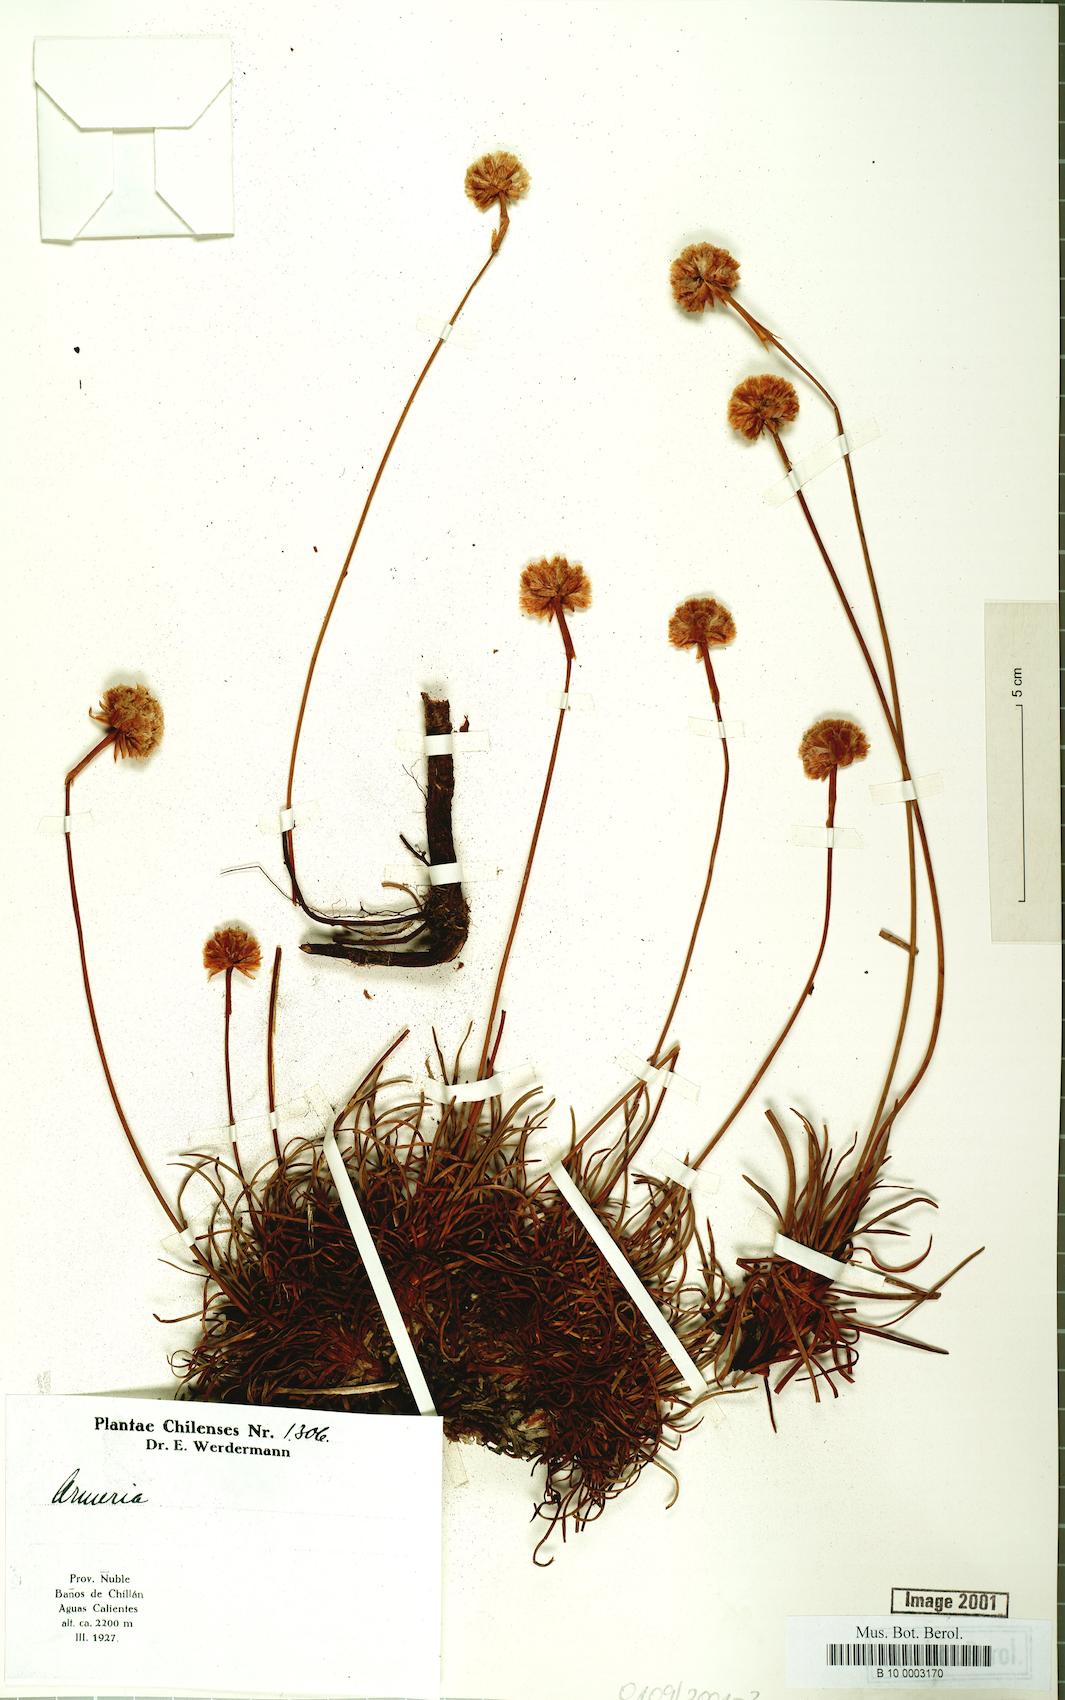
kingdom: Plantae
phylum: Tracheophyta
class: Magnoliopsida
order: Caryophyllales
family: Plumbaginaceae
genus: Armeria
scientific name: Armeria curvifolia
